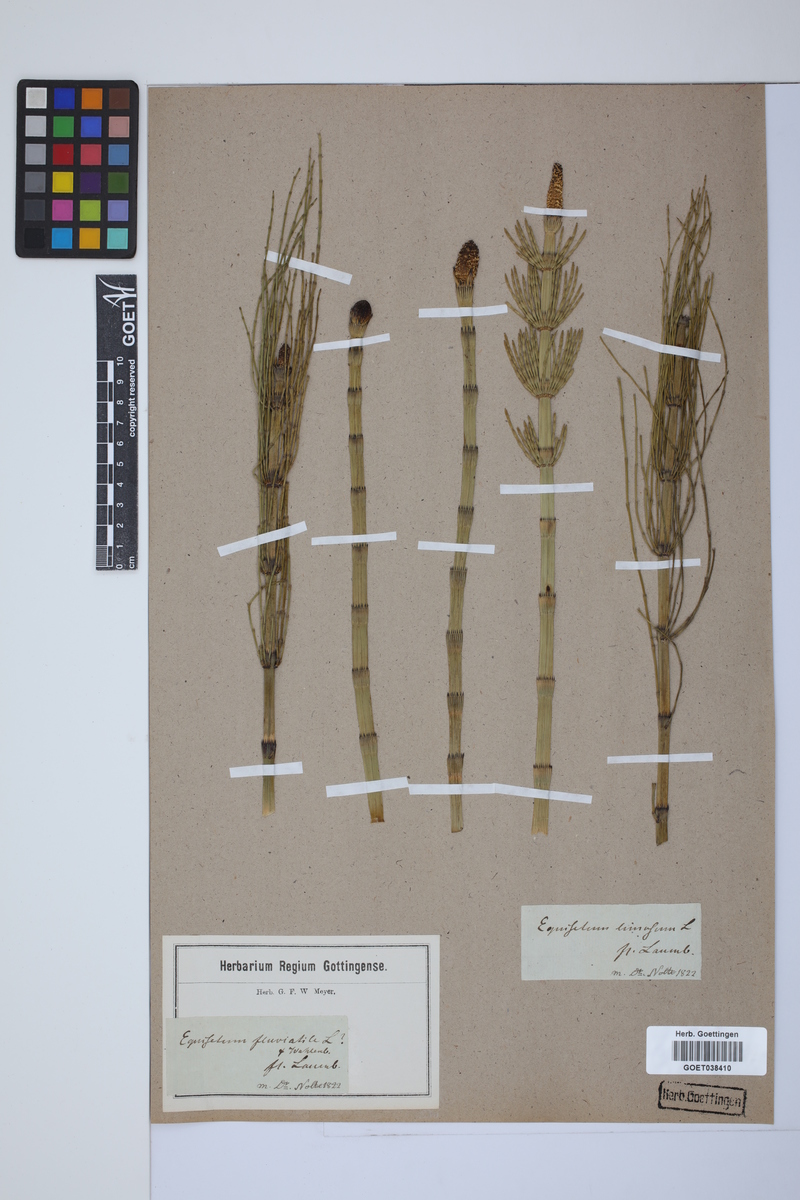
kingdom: Plantae
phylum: Tracheophyta
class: Polypodiopsida
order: Equisetales
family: Equisetaceae
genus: Equisetum
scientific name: Equisetum fluviatile
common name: Water horsetail
